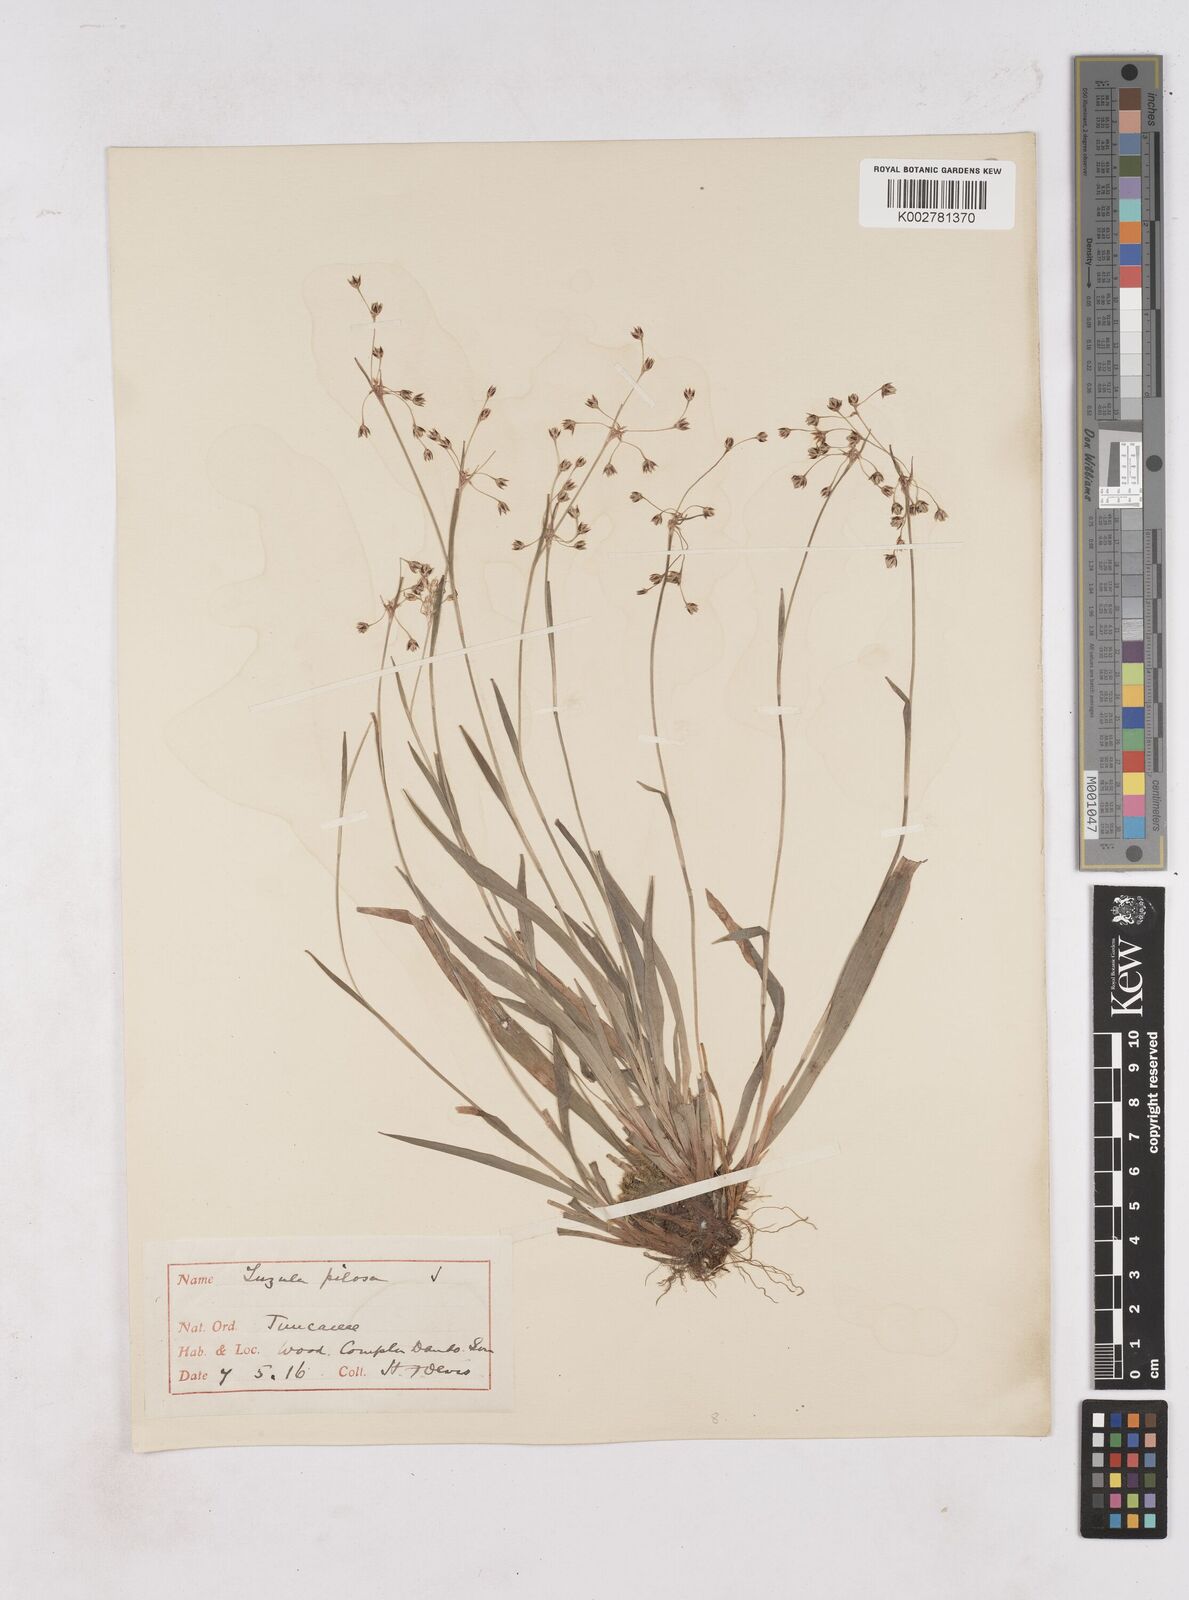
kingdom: Plantae
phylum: Tracheophyta
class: Liliopsida
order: Poales
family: Juncaceae
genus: Luzula
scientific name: Luzula pilosa
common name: Hairy wood-rush
